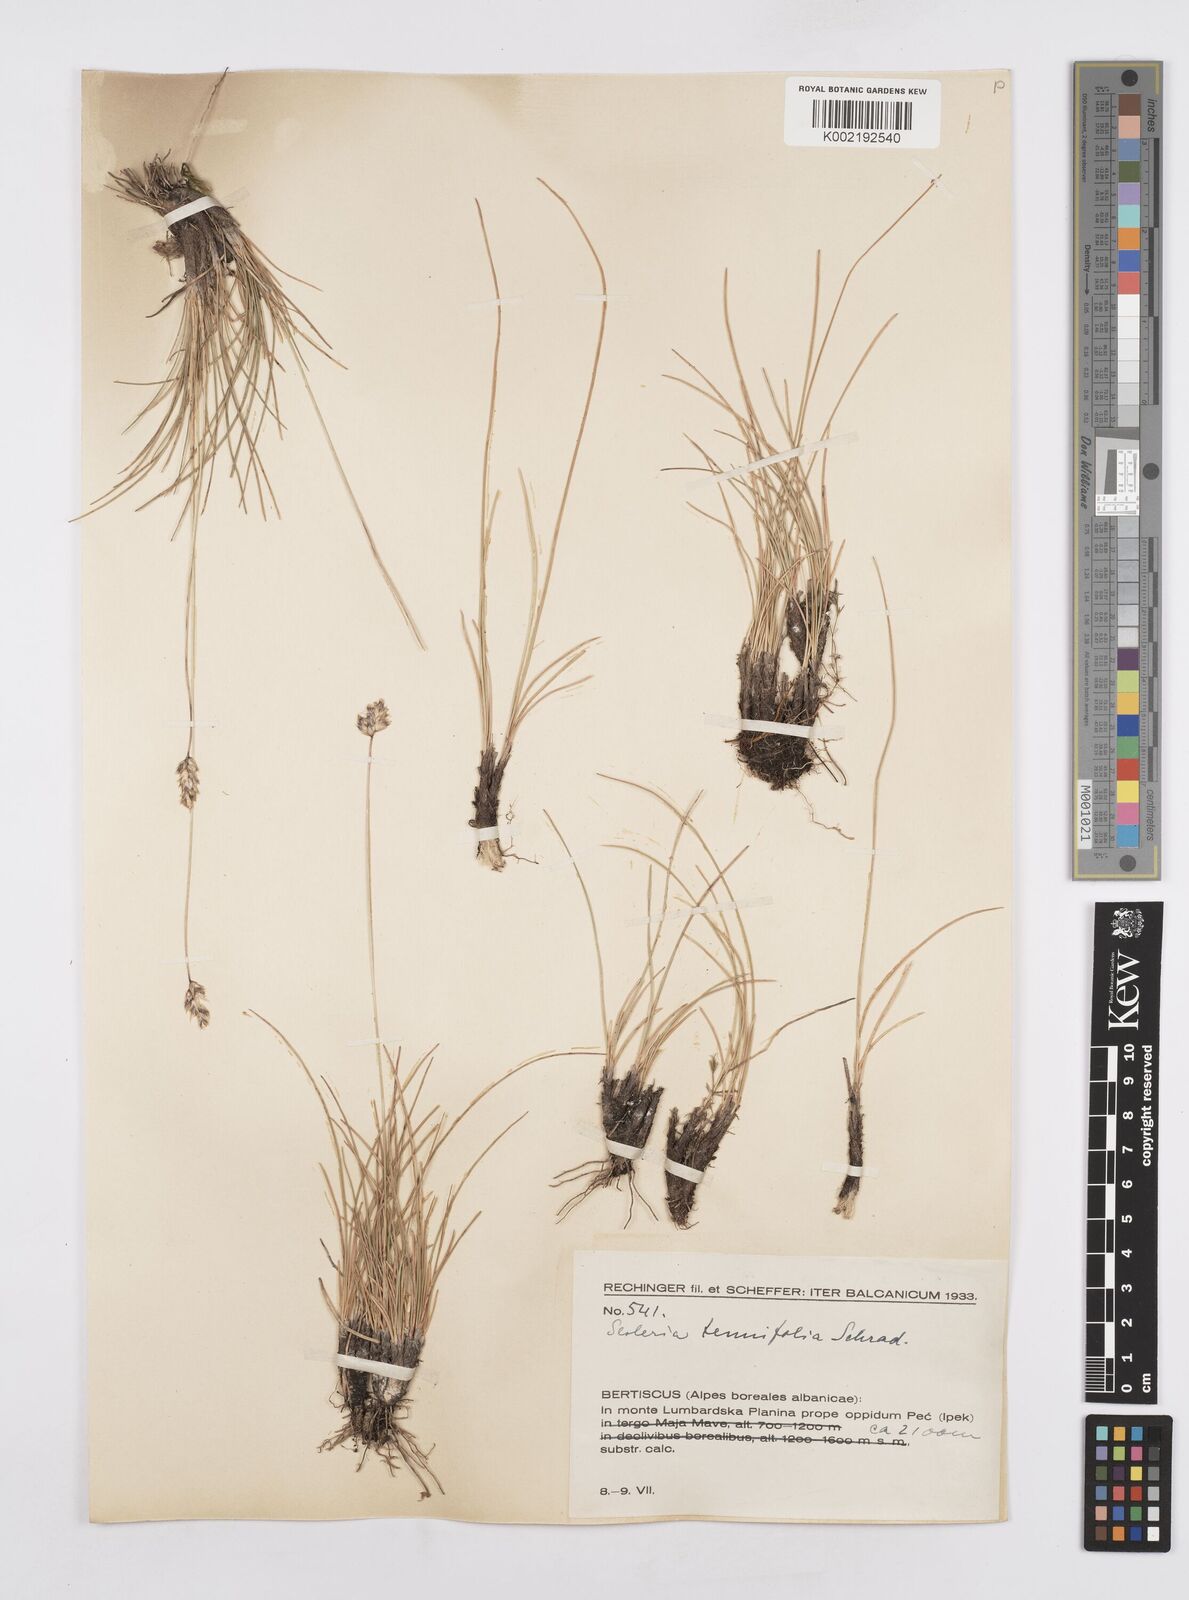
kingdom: Plantae
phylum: Tracheophyta
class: Liliopsida
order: Poales
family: Poaceae
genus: Sesleria
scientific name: Sesleria juncifolia
